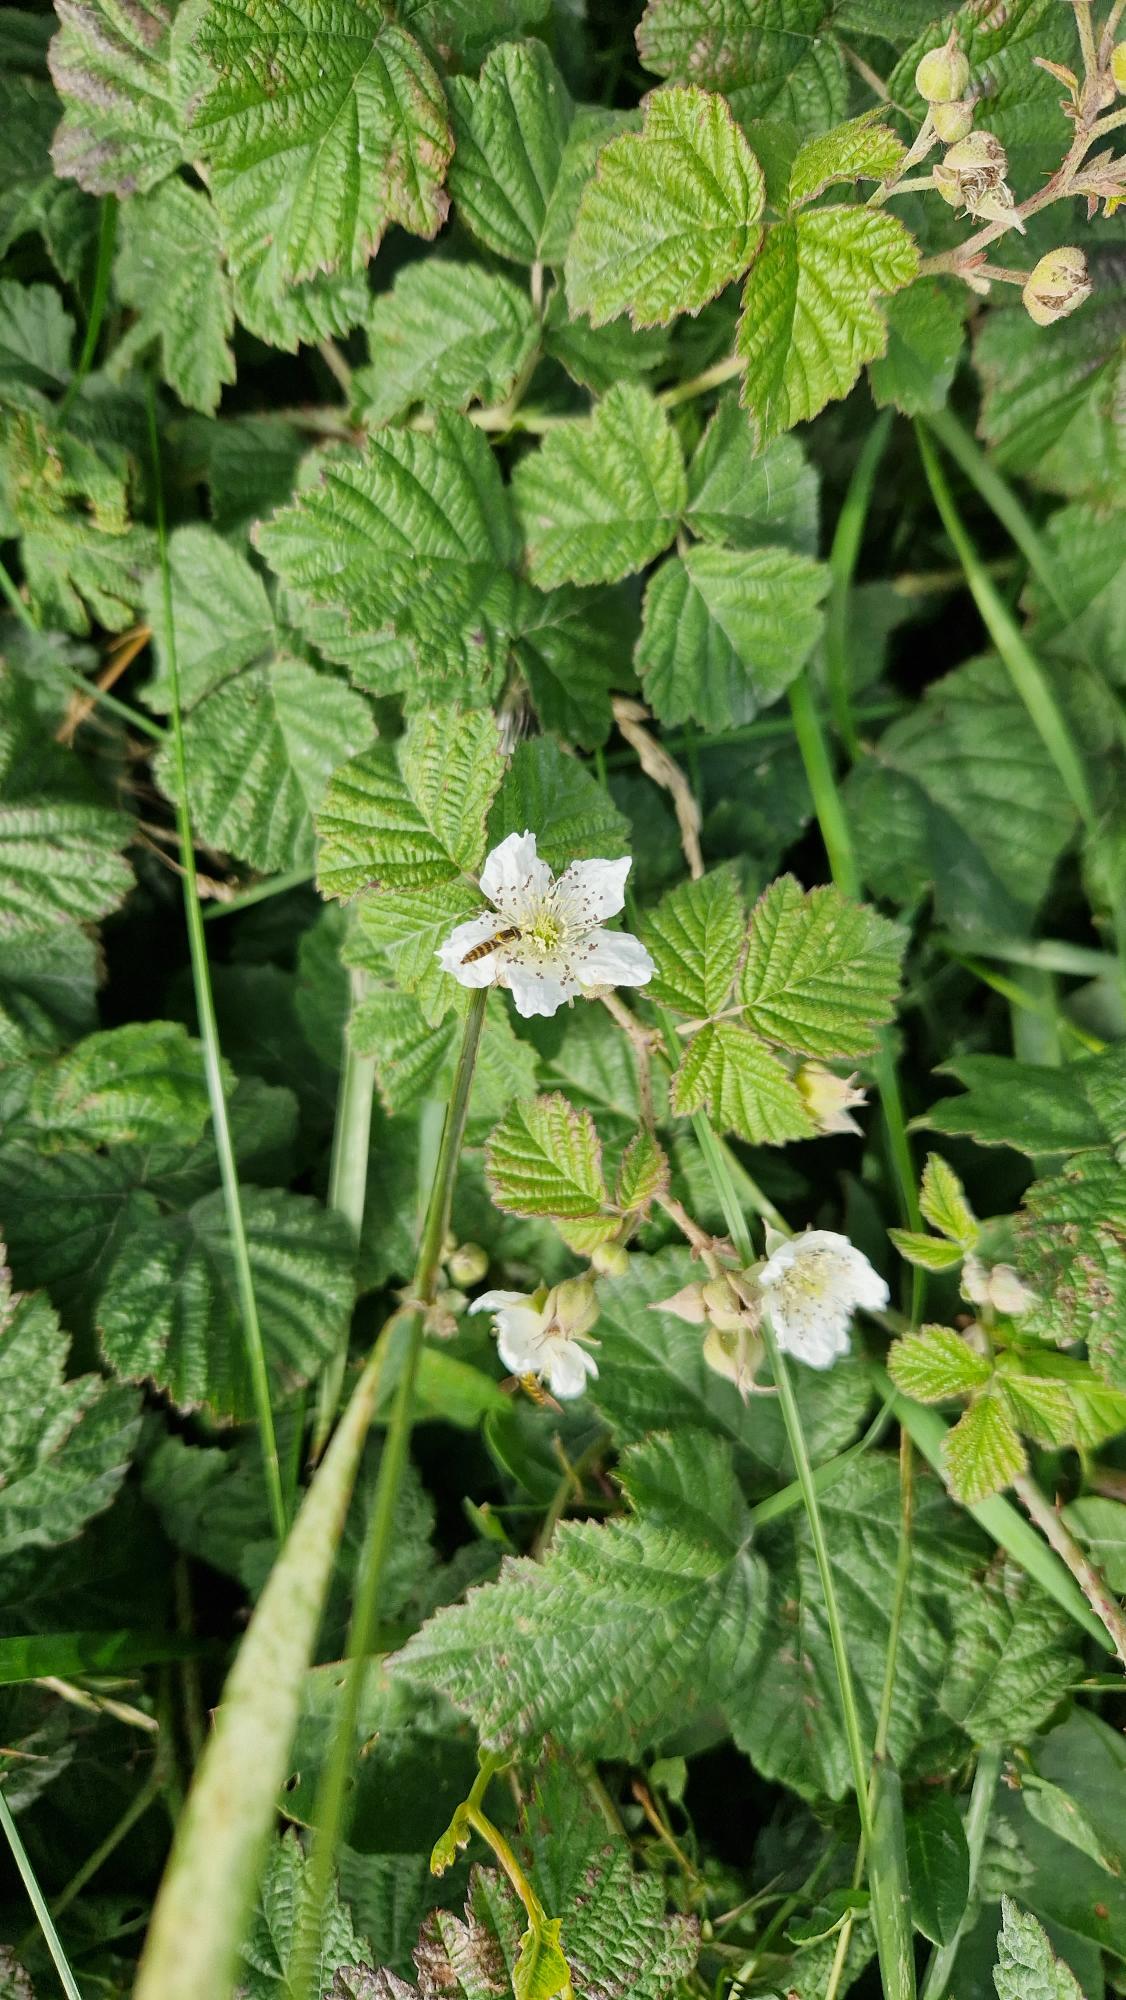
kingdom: Plantae
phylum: Tracheophyta
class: Magnoliopsida
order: Rosales
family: Rosaceae
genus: Rubus
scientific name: Rubus caesius
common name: Korbær
